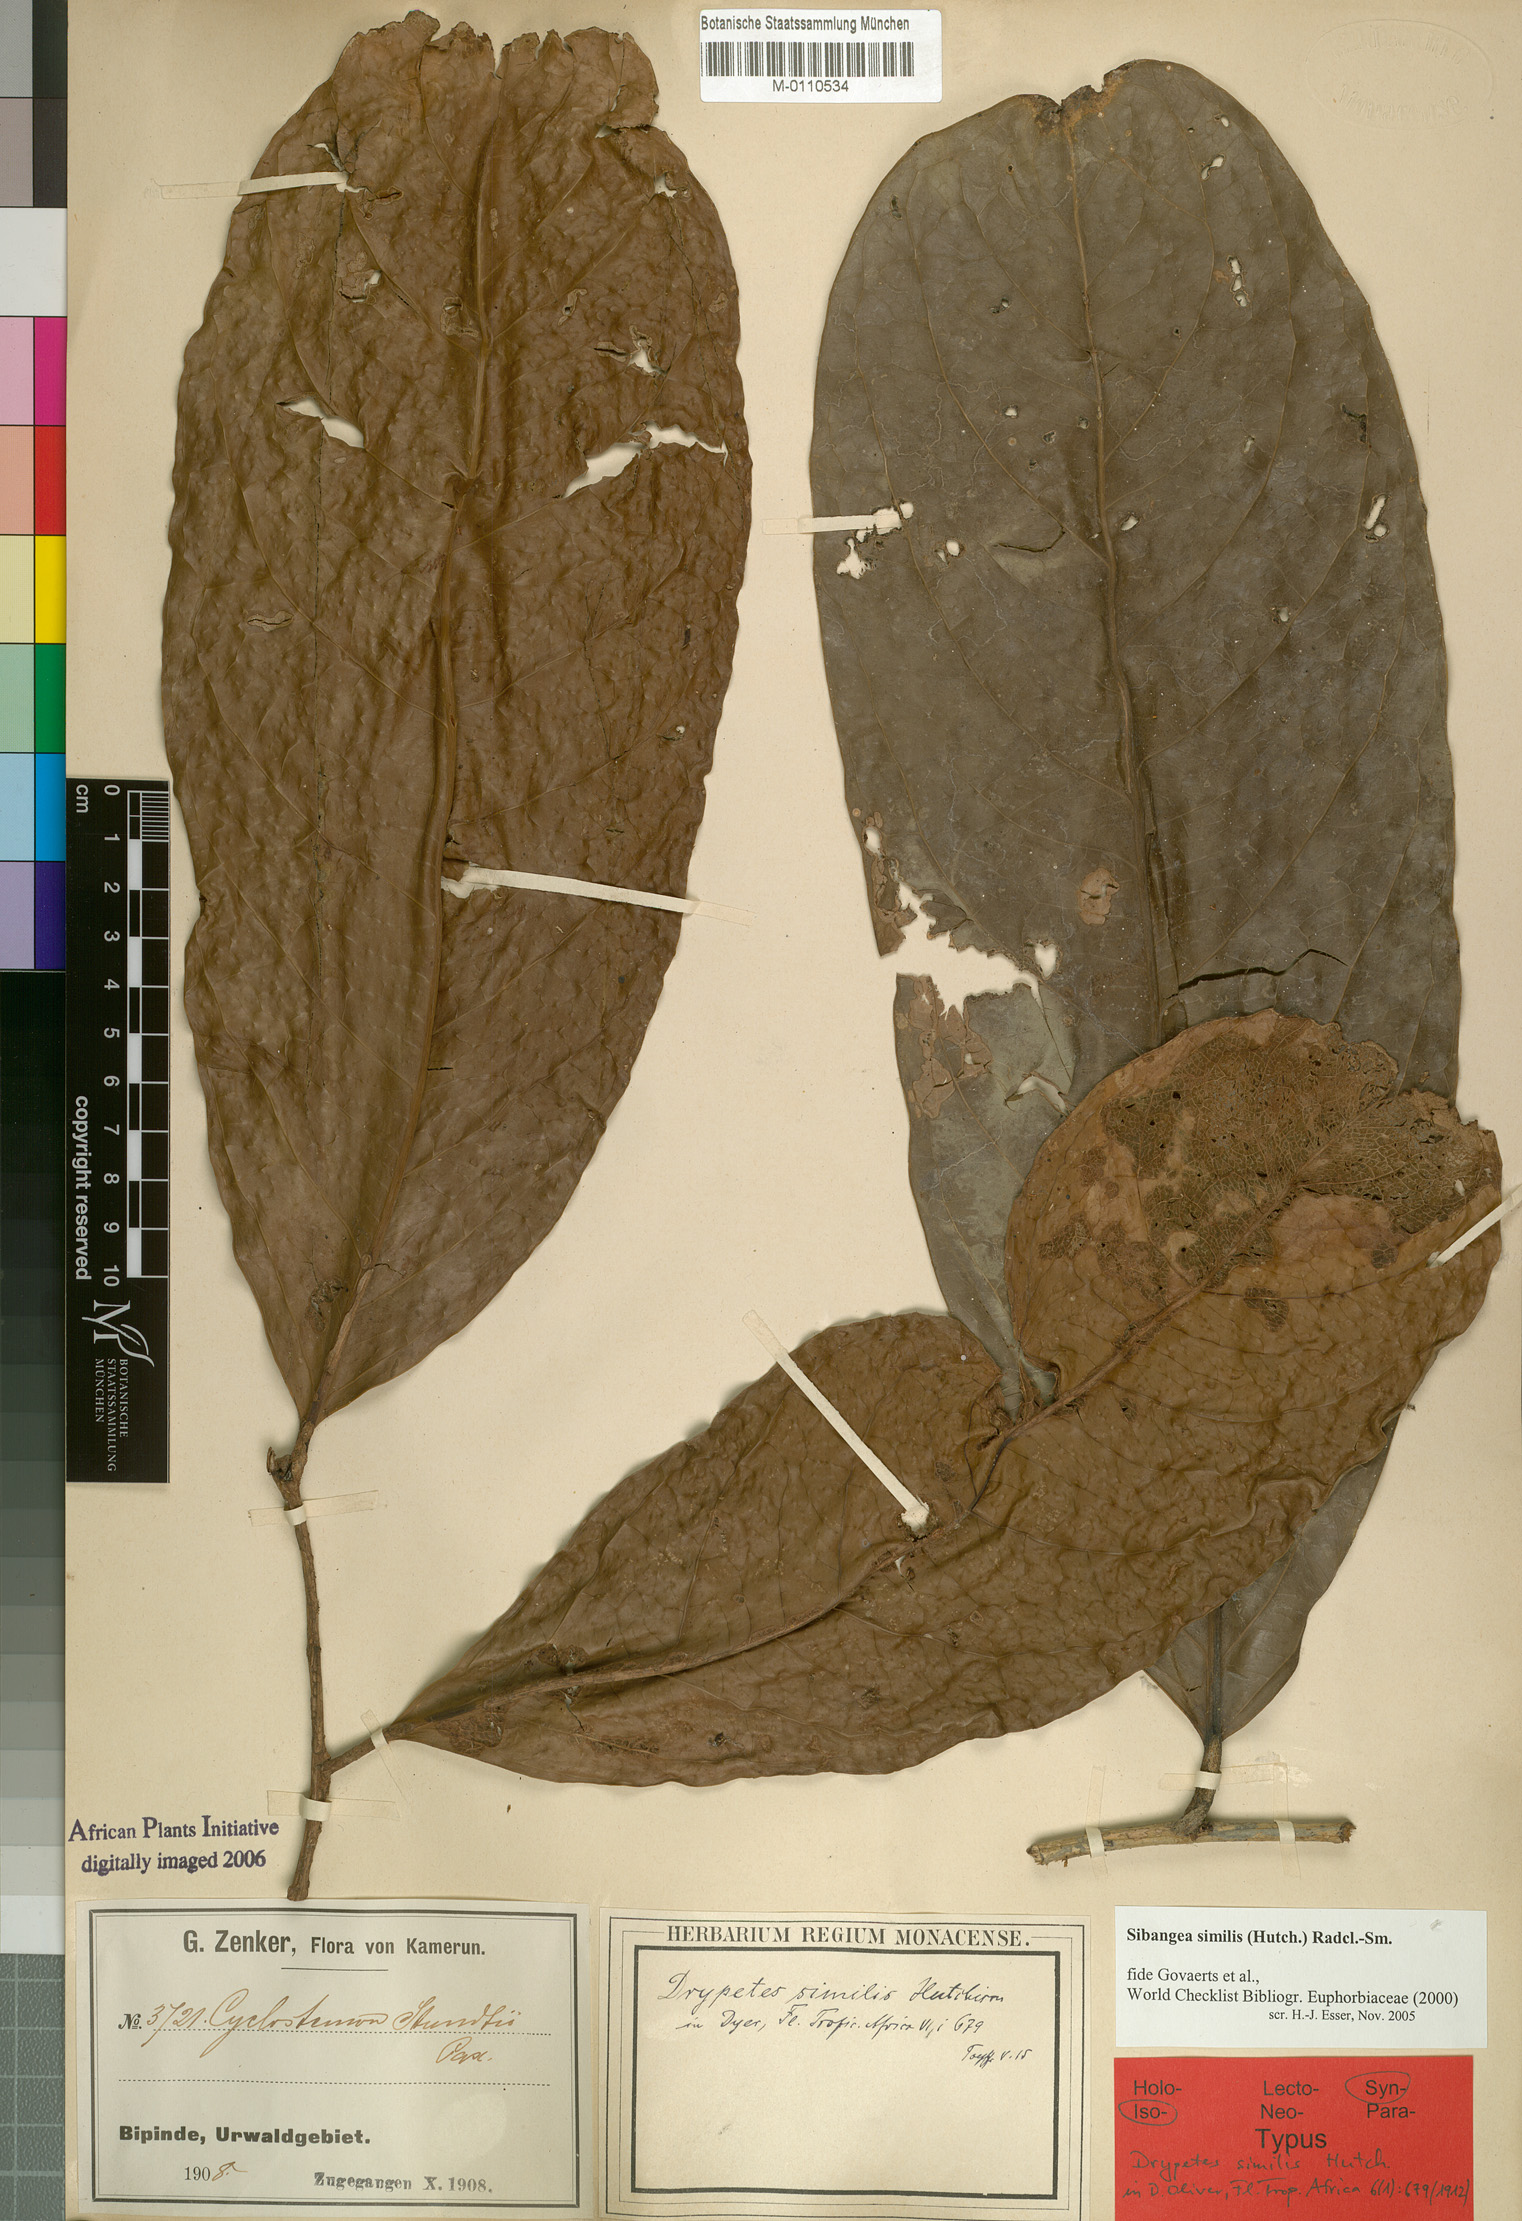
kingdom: Plantae
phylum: Tracheophyta
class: Magnoliopsida
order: Malpighiales
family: Putranjivaceae
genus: Drypetes
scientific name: Drypetes similis
